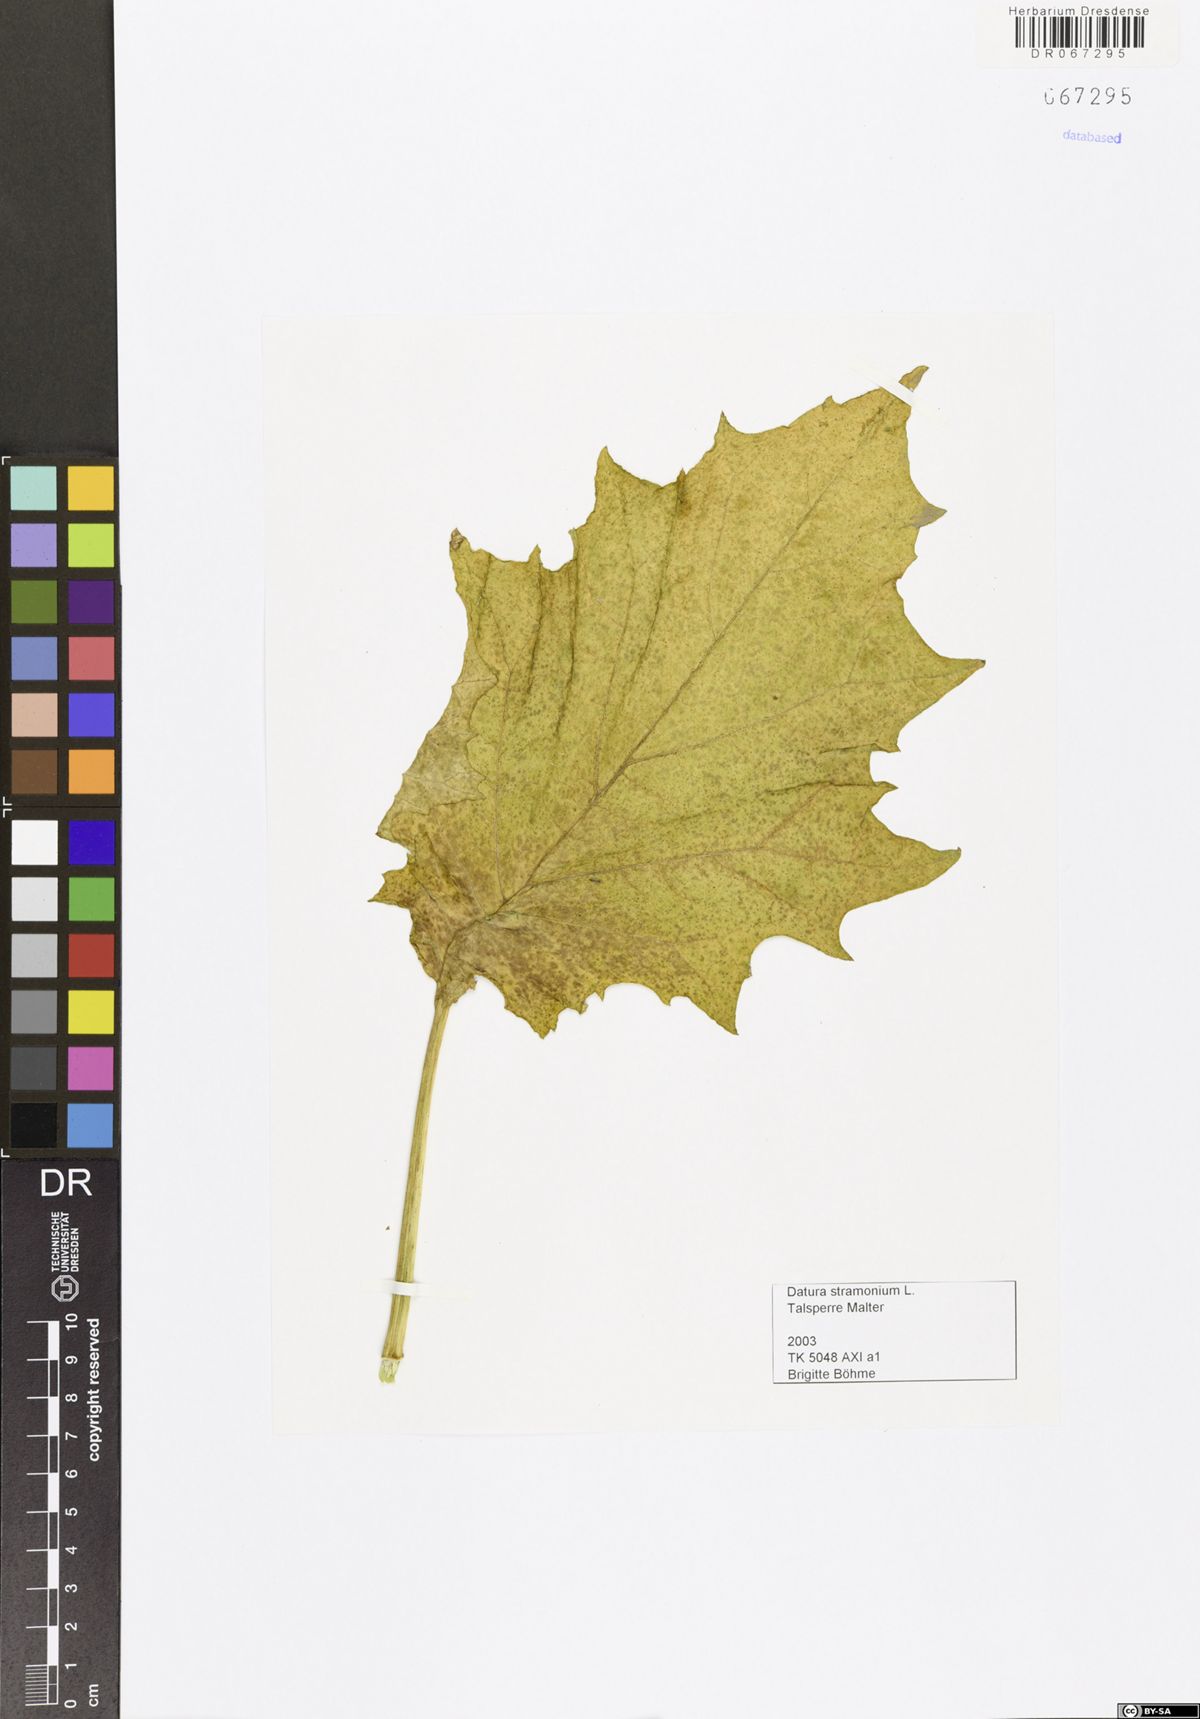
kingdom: Plantae
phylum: Tracheophyta
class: Magnoliopsida
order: Solanales
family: Solanaceae
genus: Datura
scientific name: Datura stramonium
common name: Thorn-apple
